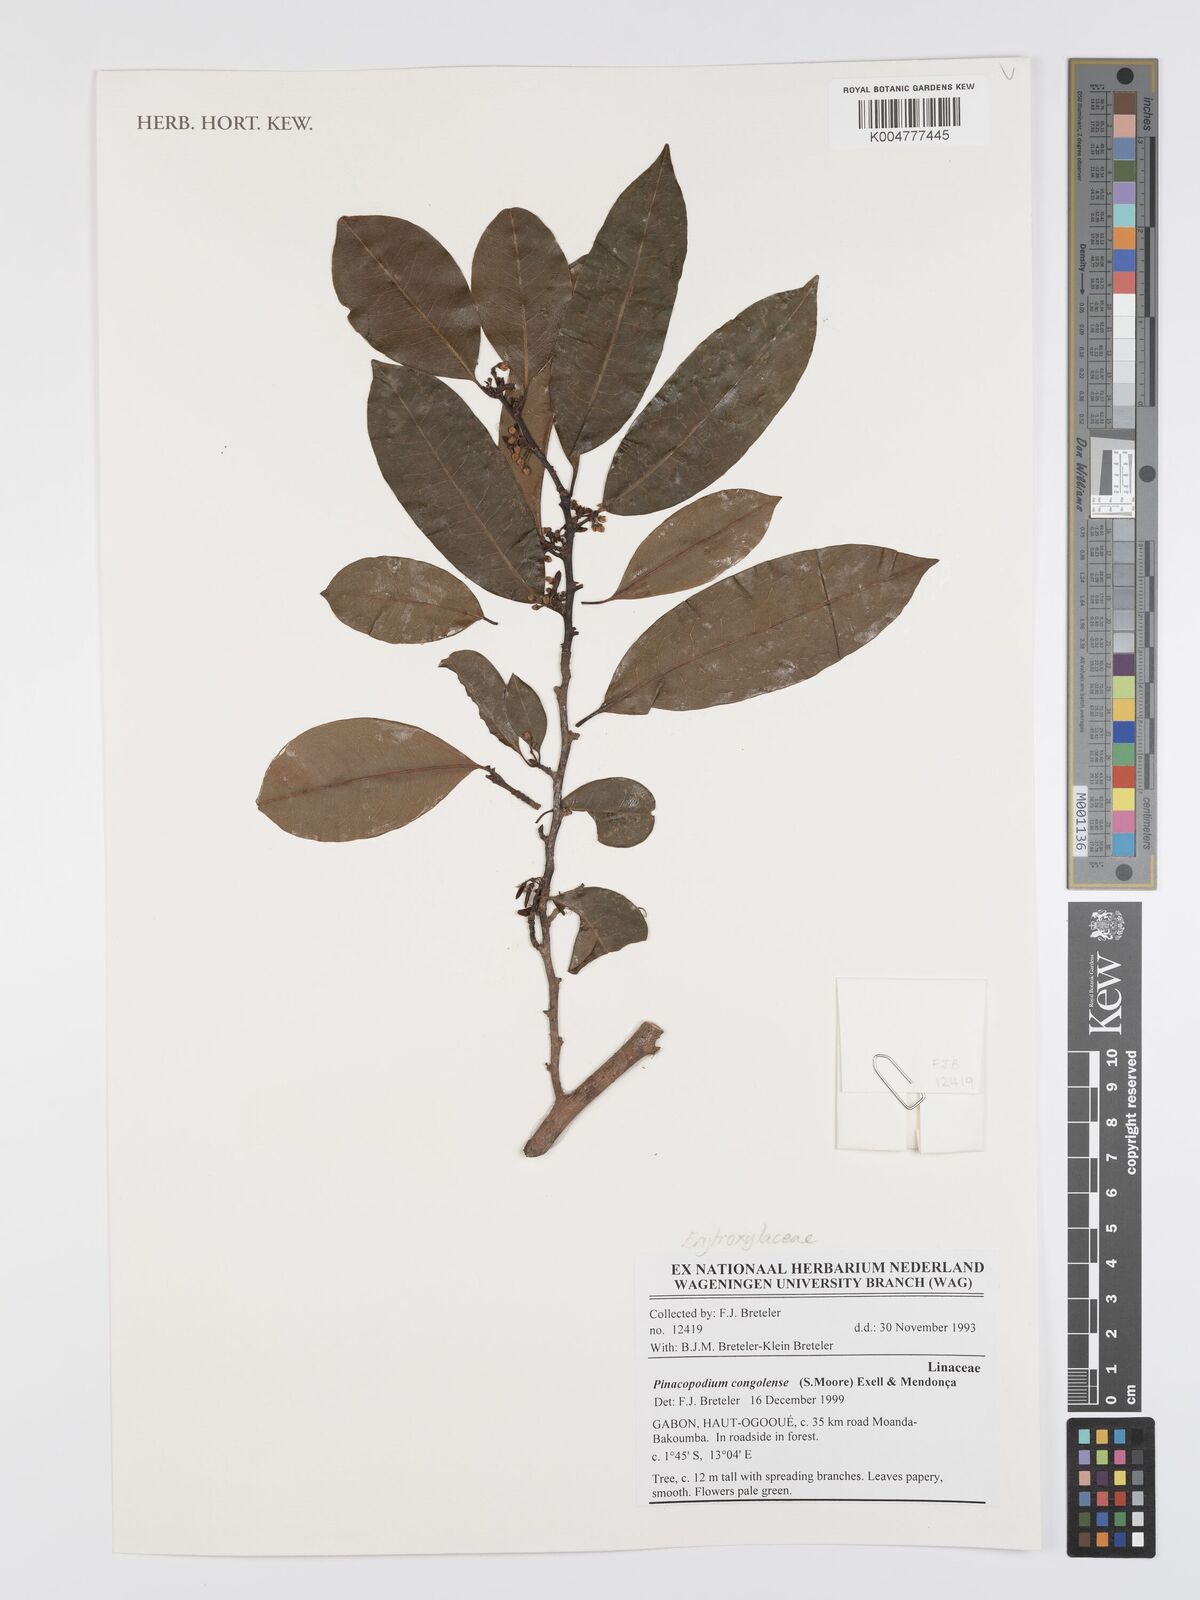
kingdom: Plantae
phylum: Tracheophyta
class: Magnoliopsida
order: Malpighiales
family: Erythroxylaceae
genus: Pinacopodium
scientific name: Pinacopodium congolense
